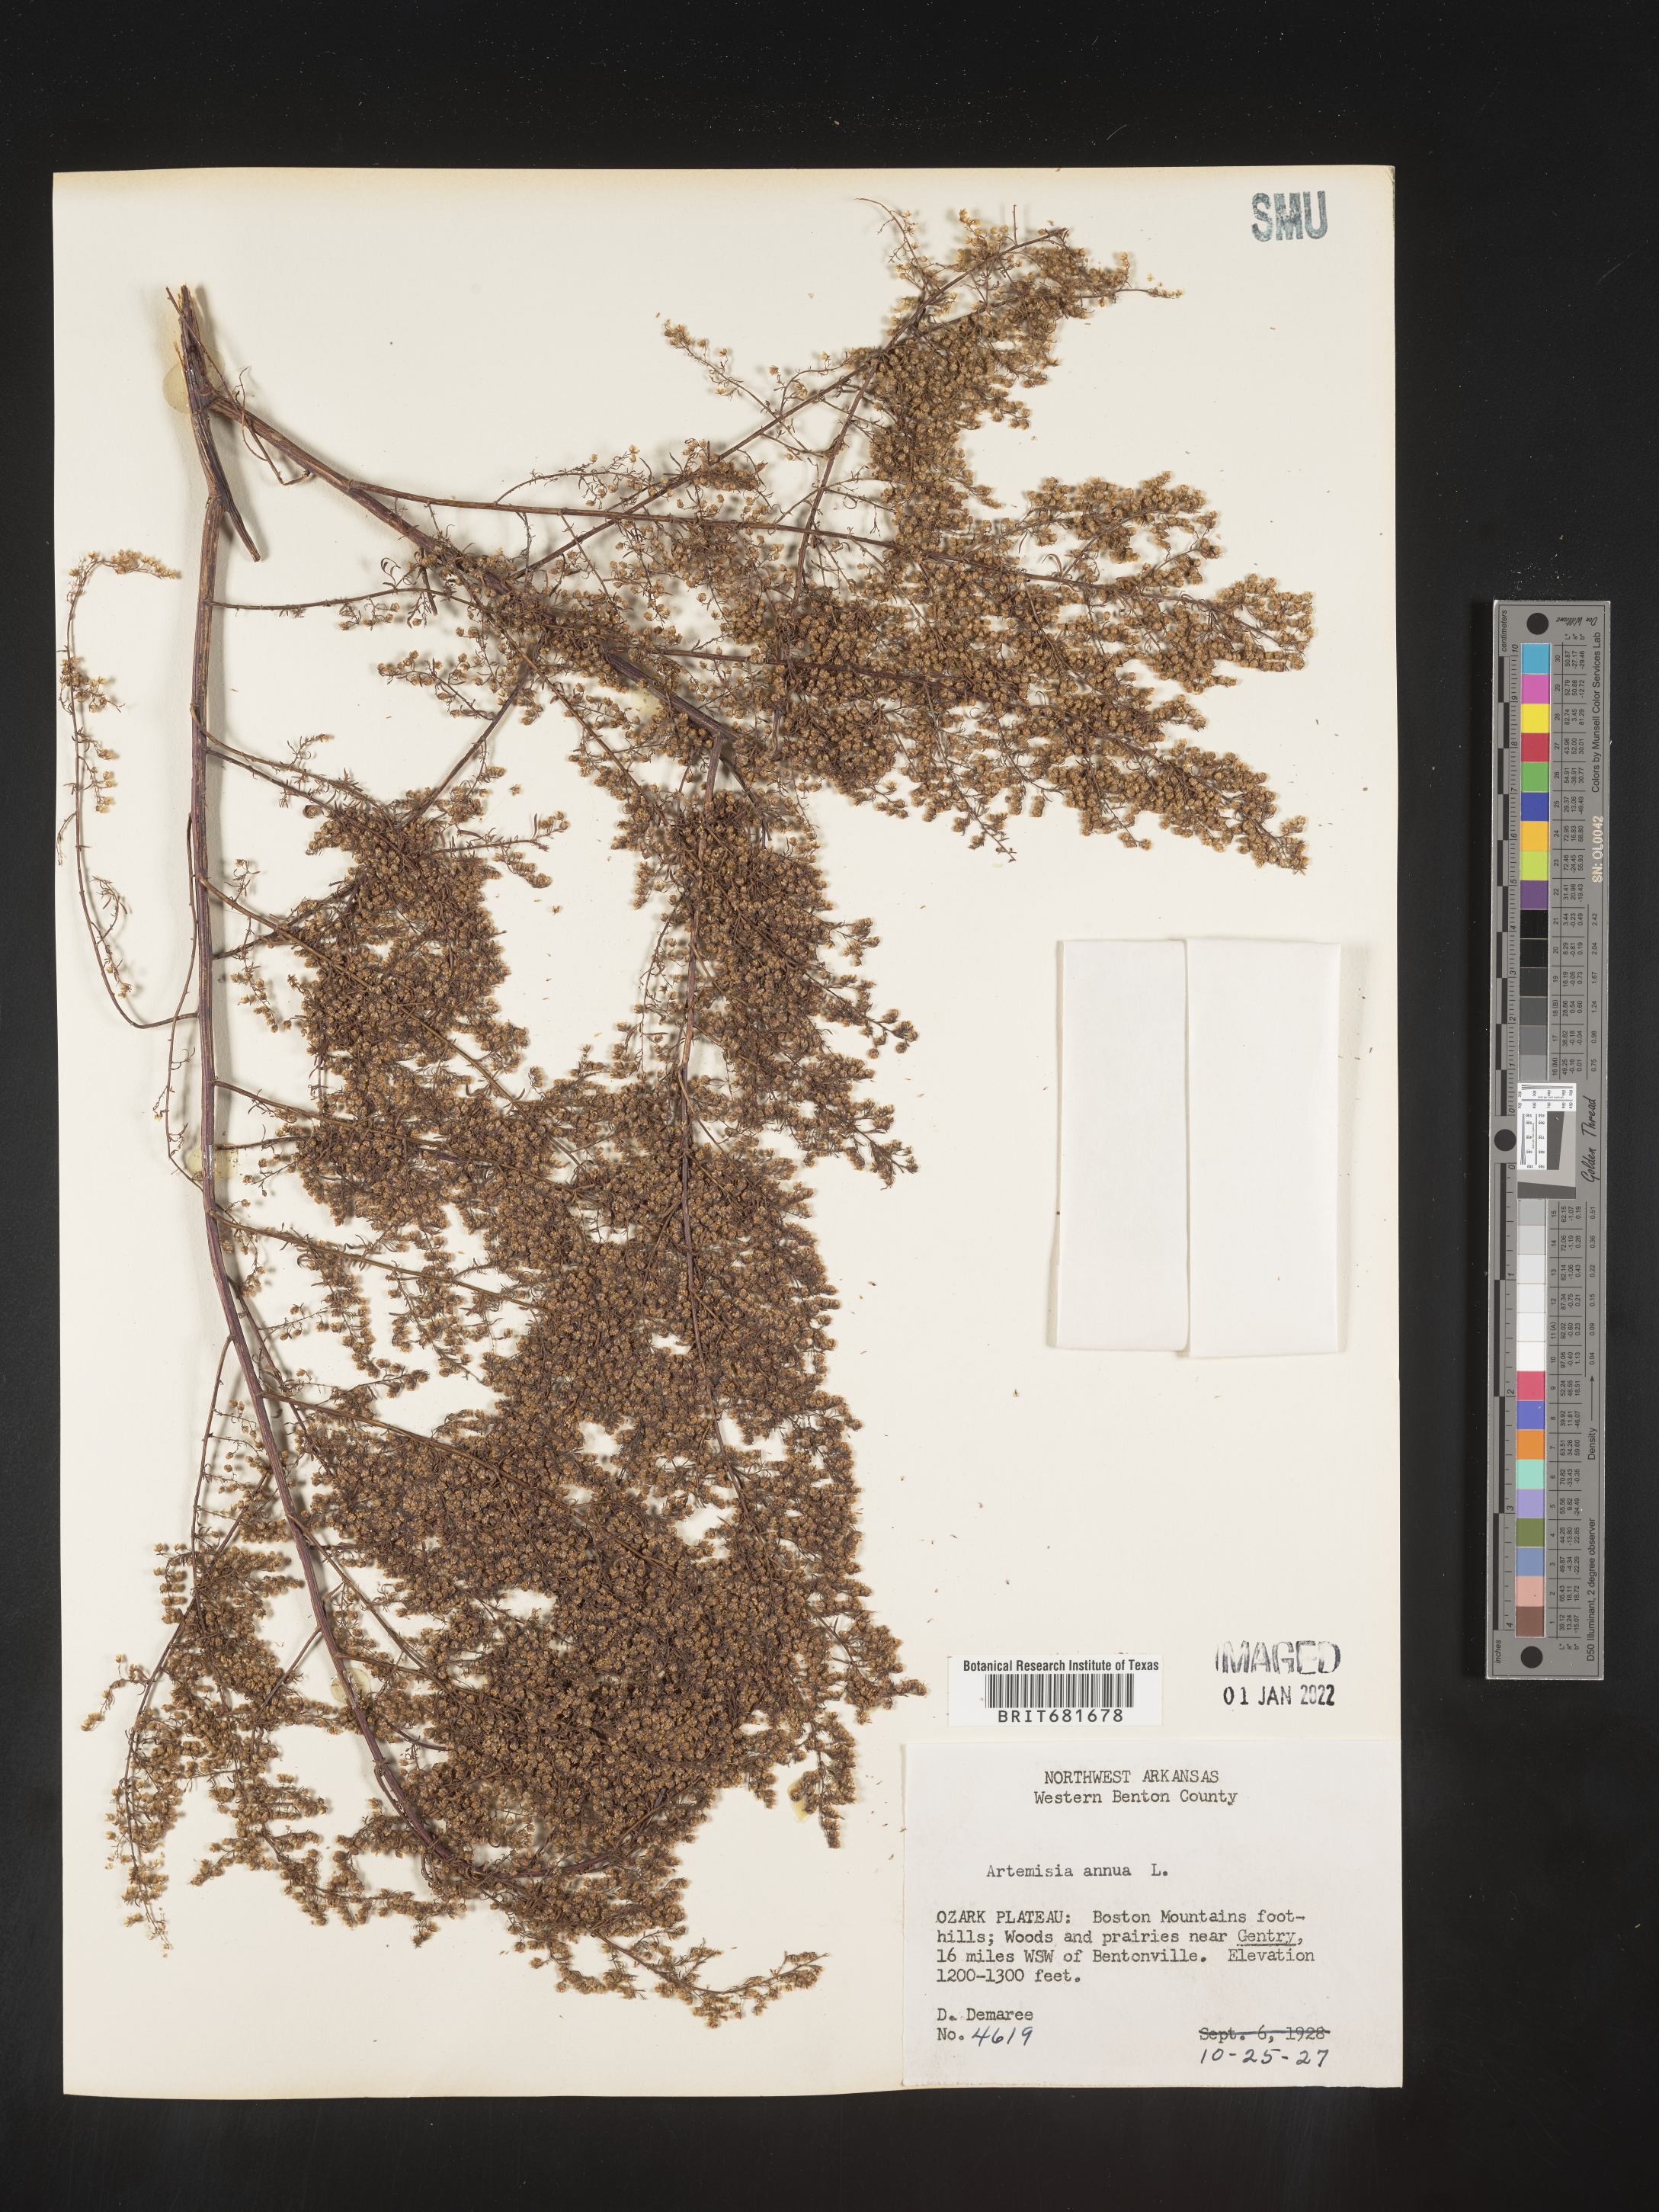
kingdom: Plantae
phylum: Tracheophyta
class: Magnoliopsida
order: Asterales
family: Asteraceae
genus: Artemisia
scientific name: Artemisia annua
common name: Sweet sagewort
